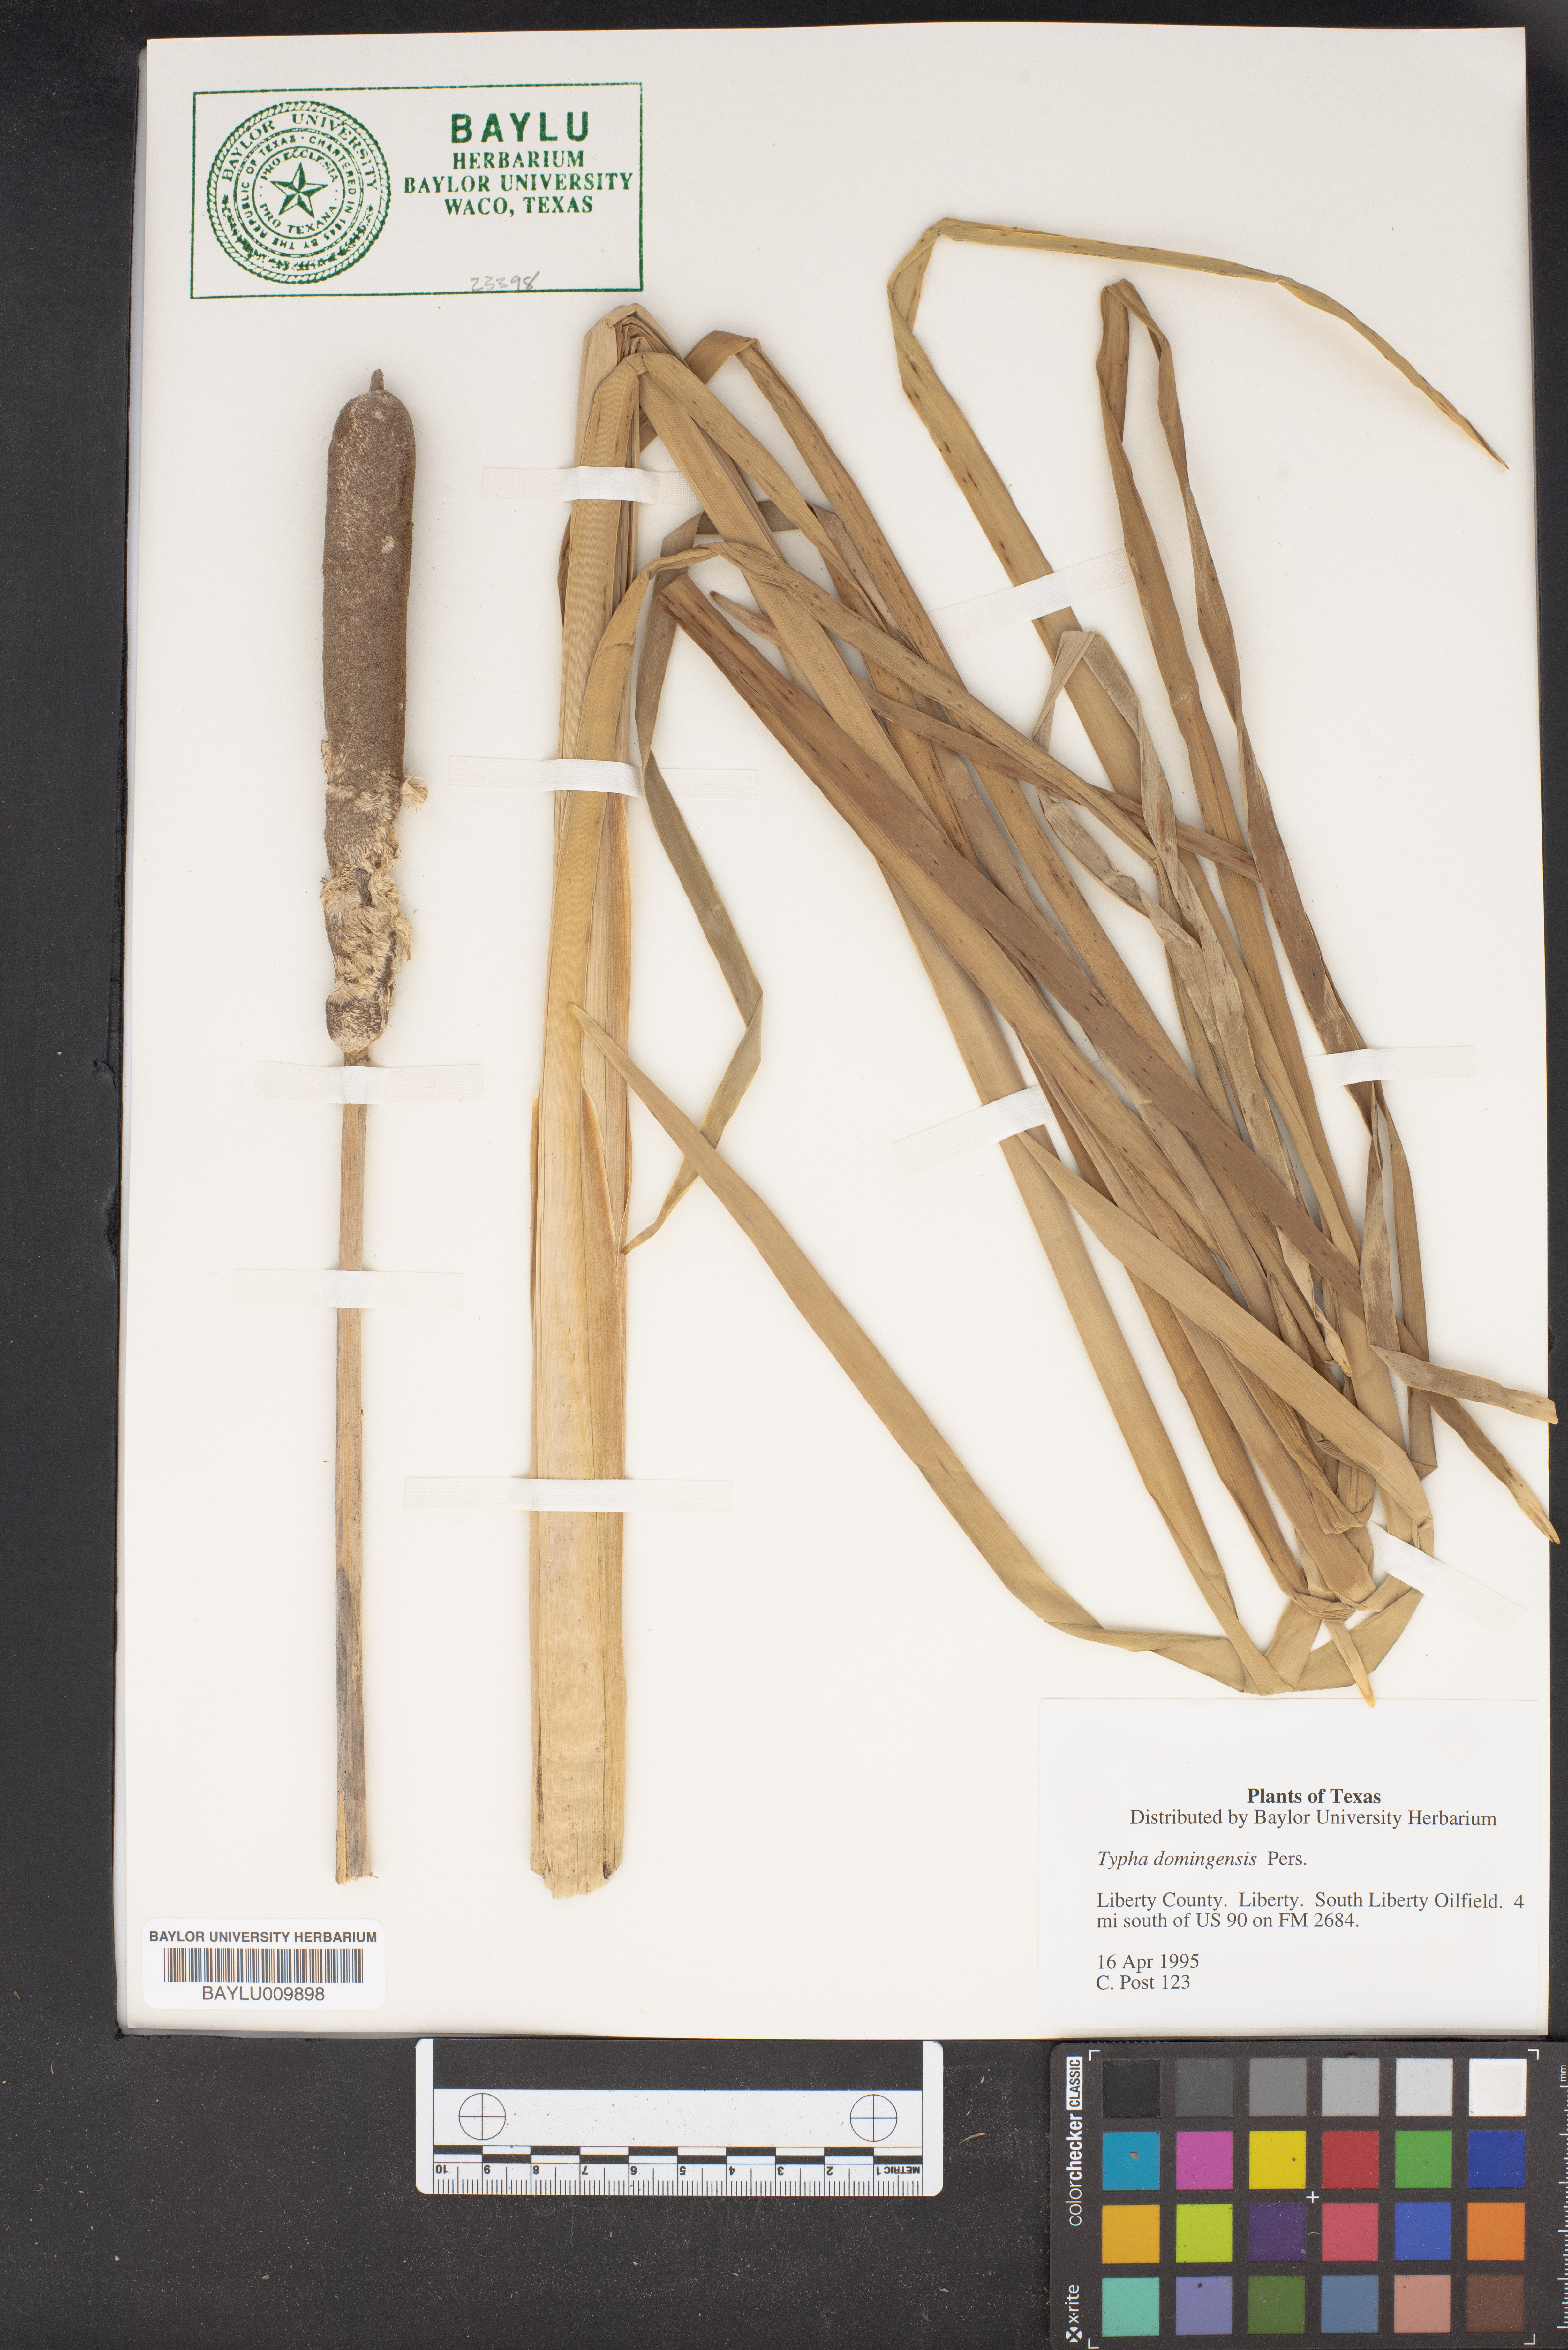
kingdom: Plantae
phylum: Tracheophyta
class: Liliopsida
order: Poales
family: Typhaceae
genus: Typha
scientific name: Typha domingensis
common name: Southern cattail
